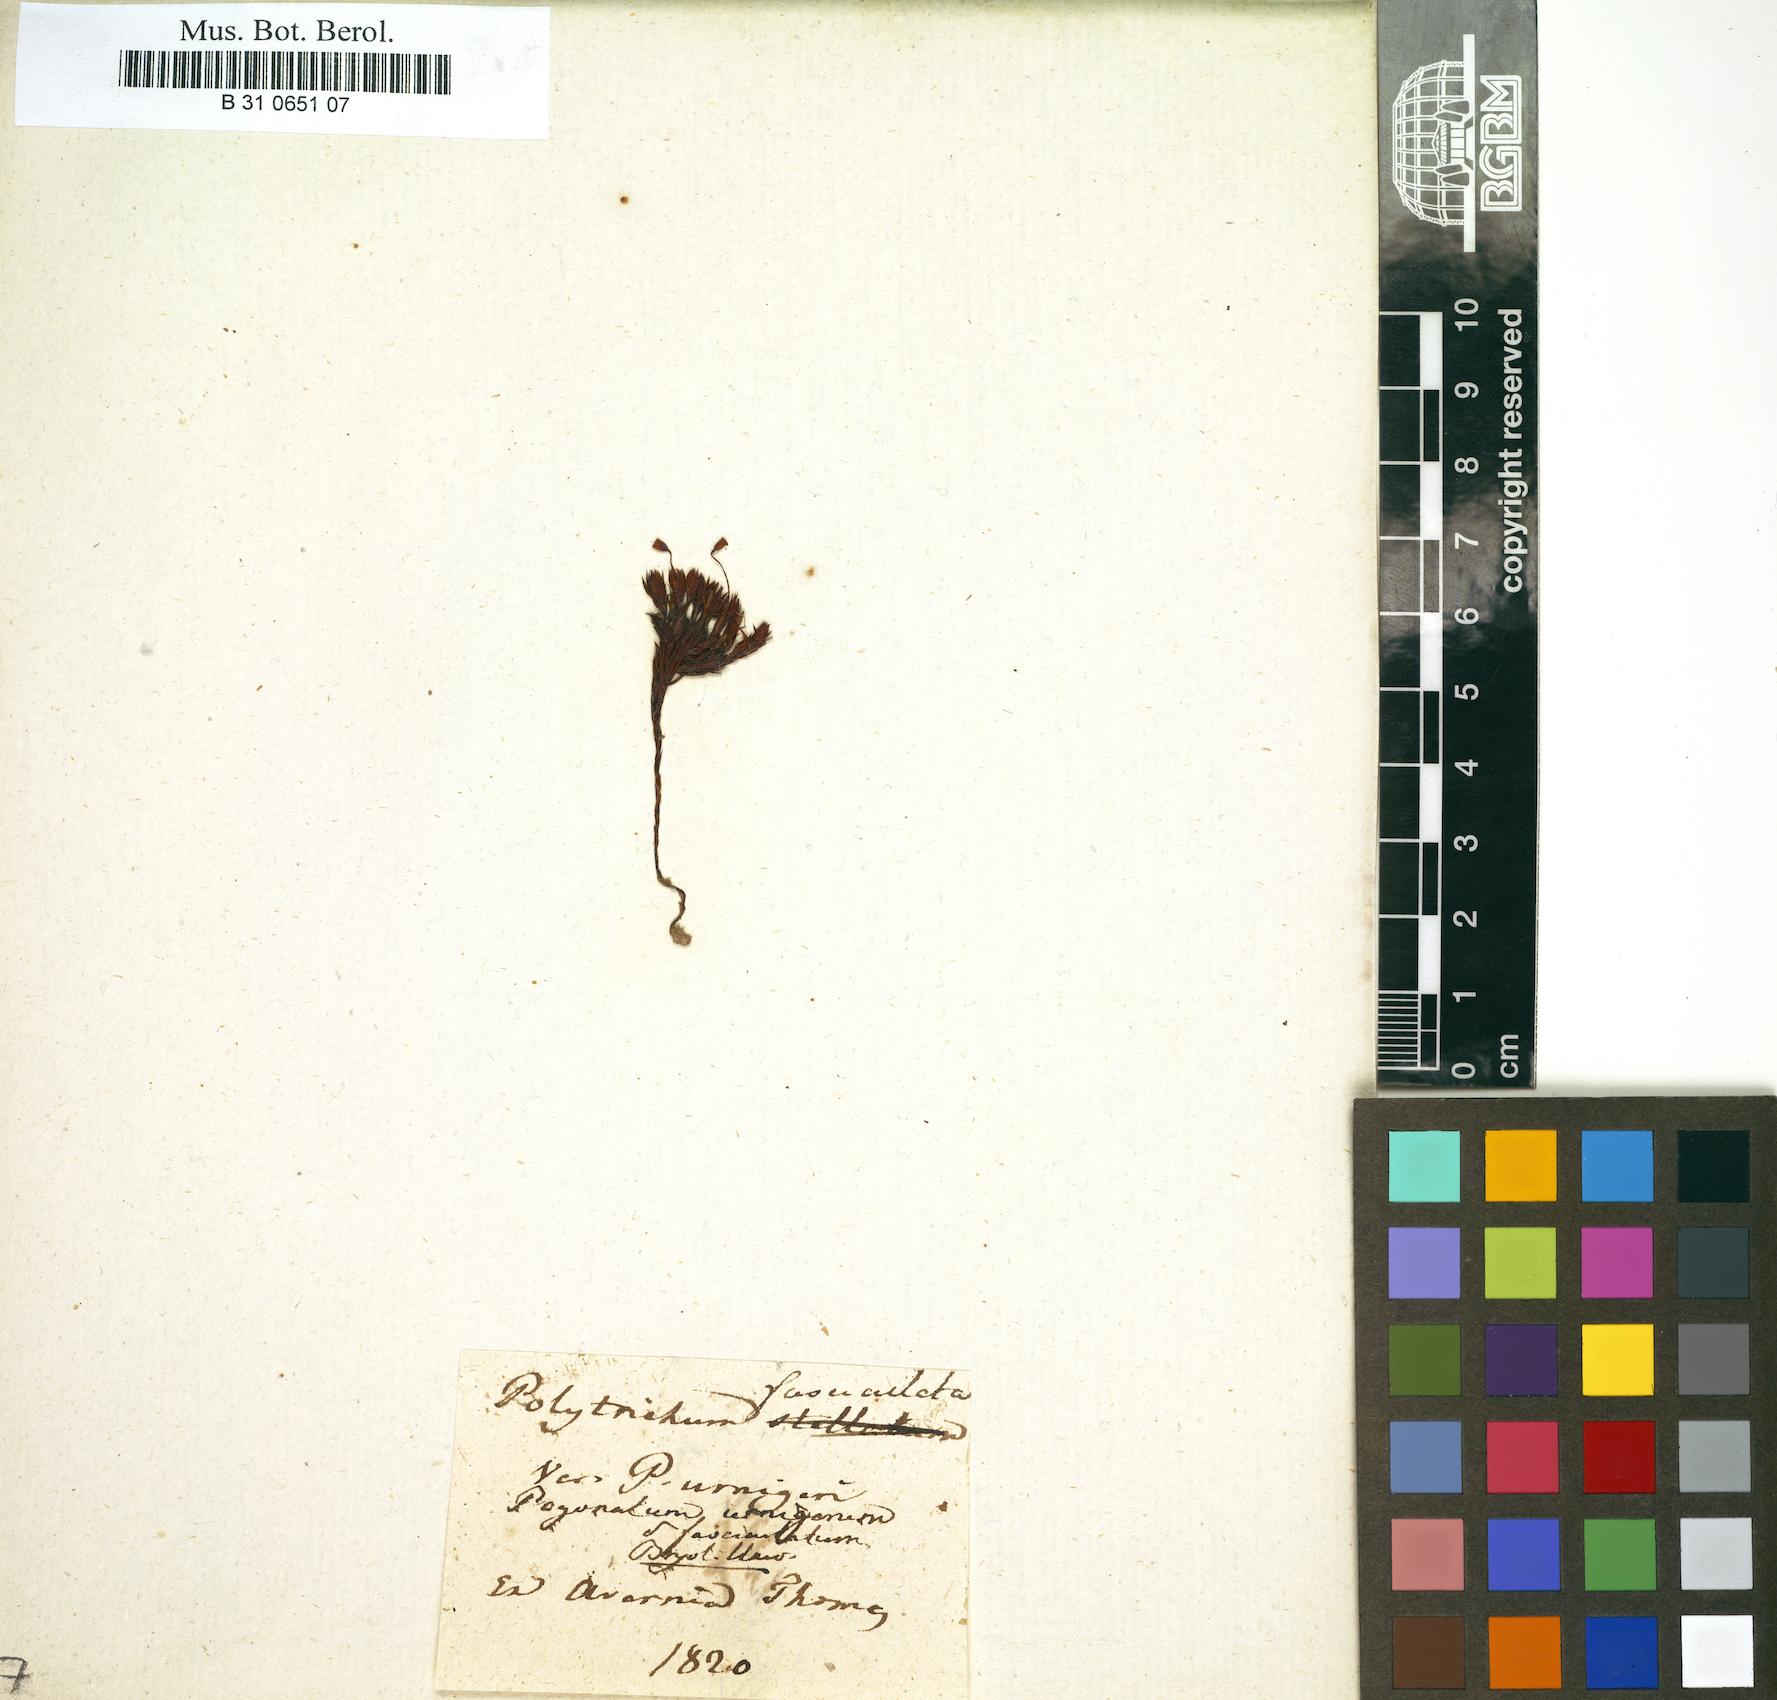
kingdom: Plantae
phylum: Bryophyta
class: Polytrichopsida
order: Polytrichales
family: Polytrichaceae
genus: Pogonatum
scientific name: Pogonatum
